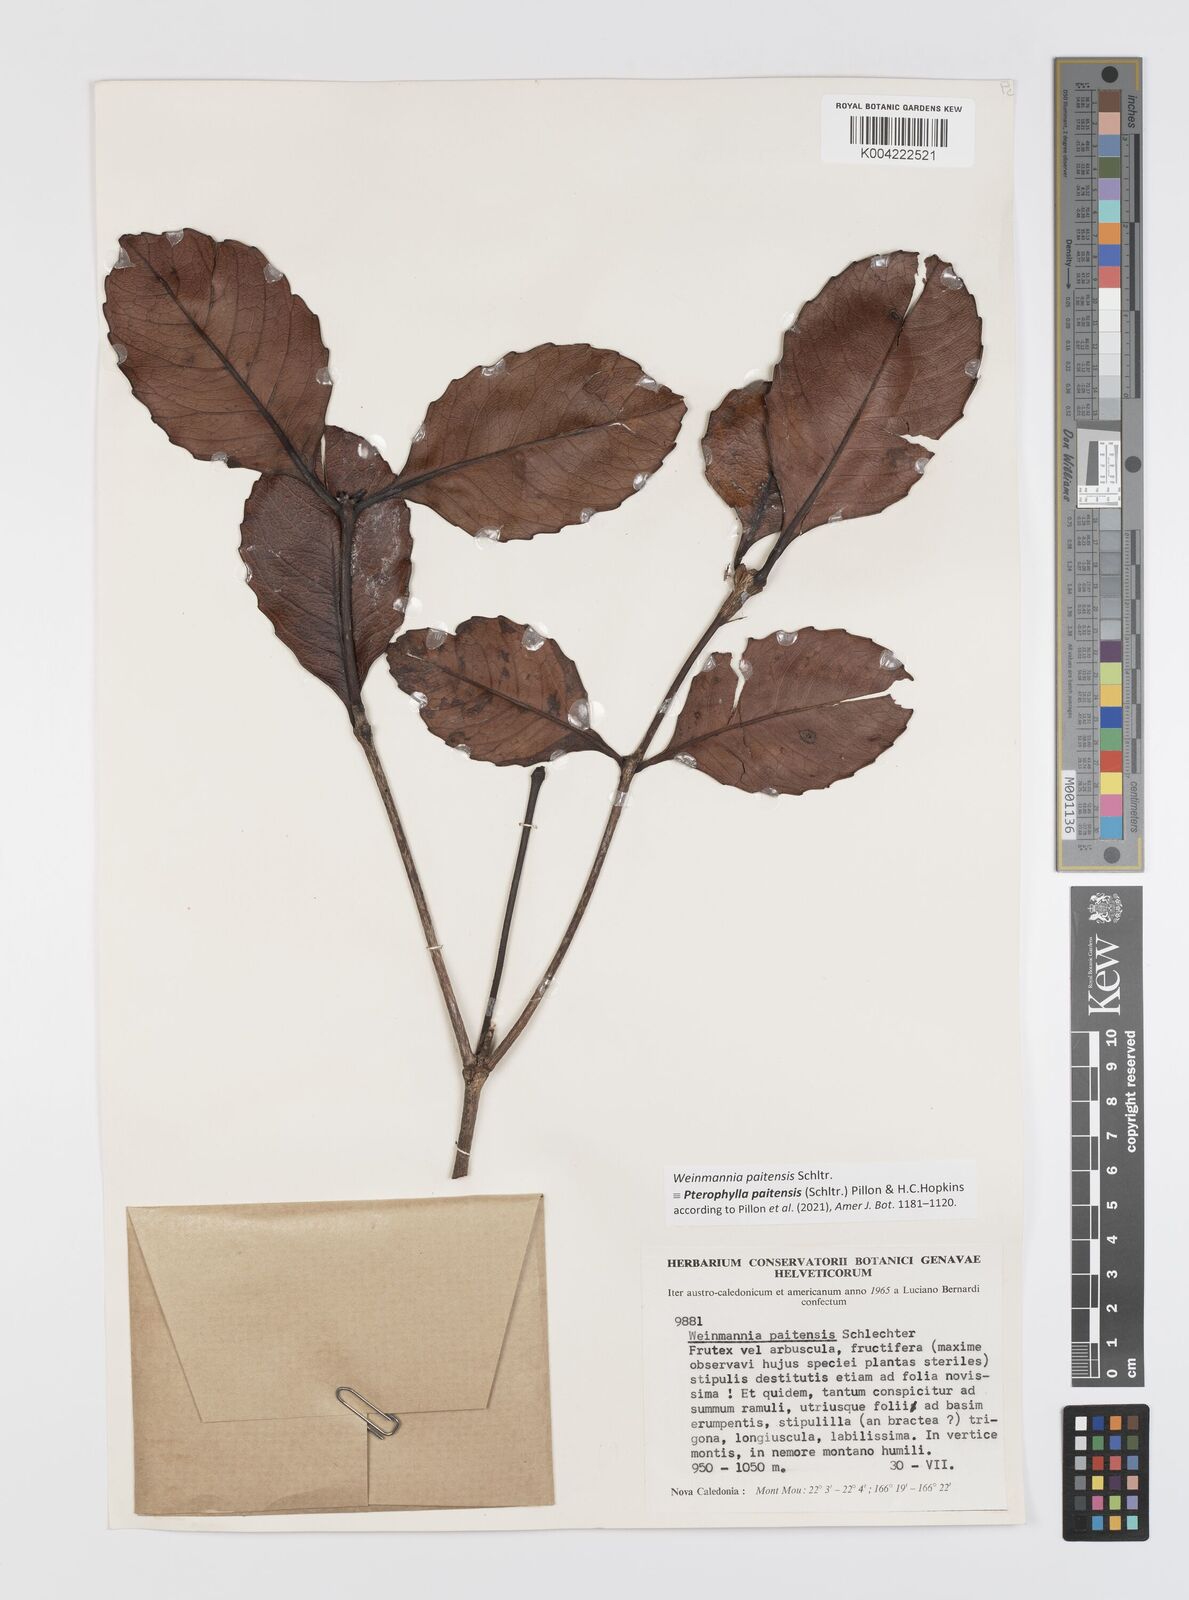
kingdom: Plantae
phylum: Tracheophyta
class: Magnoliopsida
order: Oxalidales
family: Cunoniaceae
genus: Pterophylla
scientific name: Pterophylla paitensis
